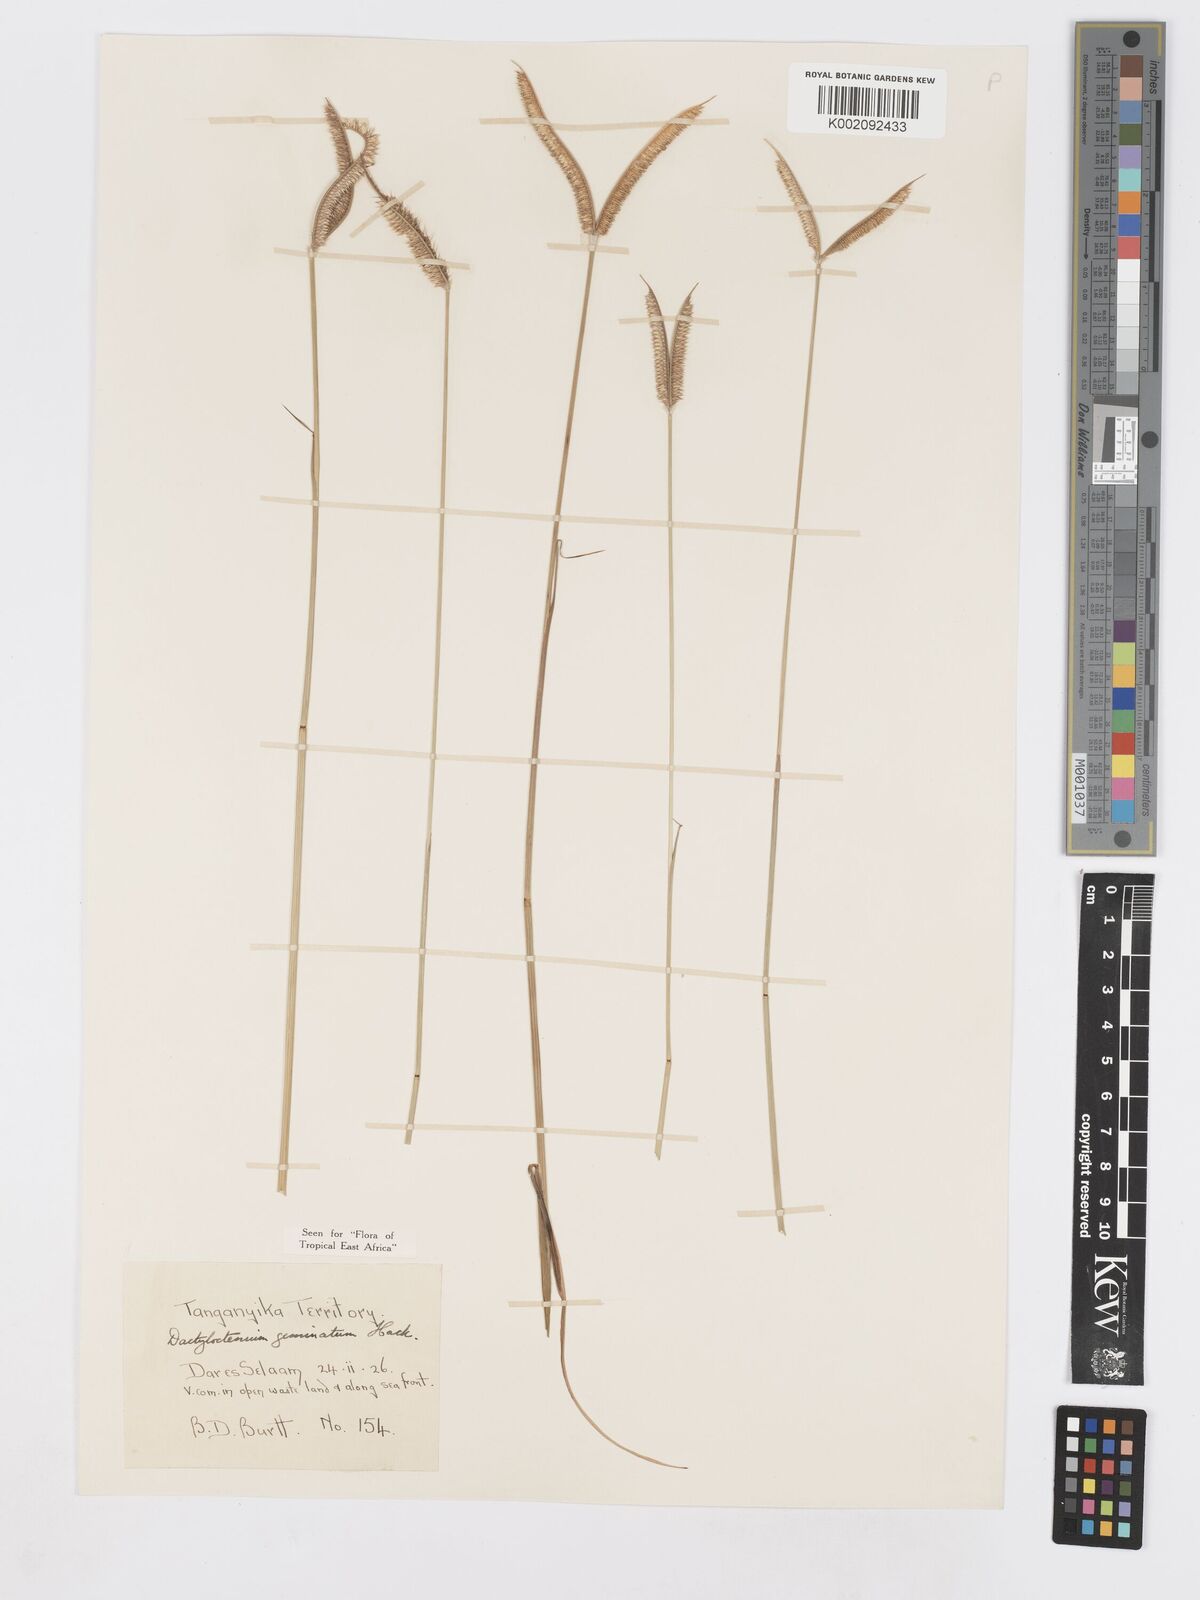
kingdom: Plantae
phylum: Tracheophyta
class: Liliopsida
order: Poales
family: Poaceae
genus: Dactyloctenium
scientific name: Dactyloctenium geminatum
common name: Crowsfoot grass
